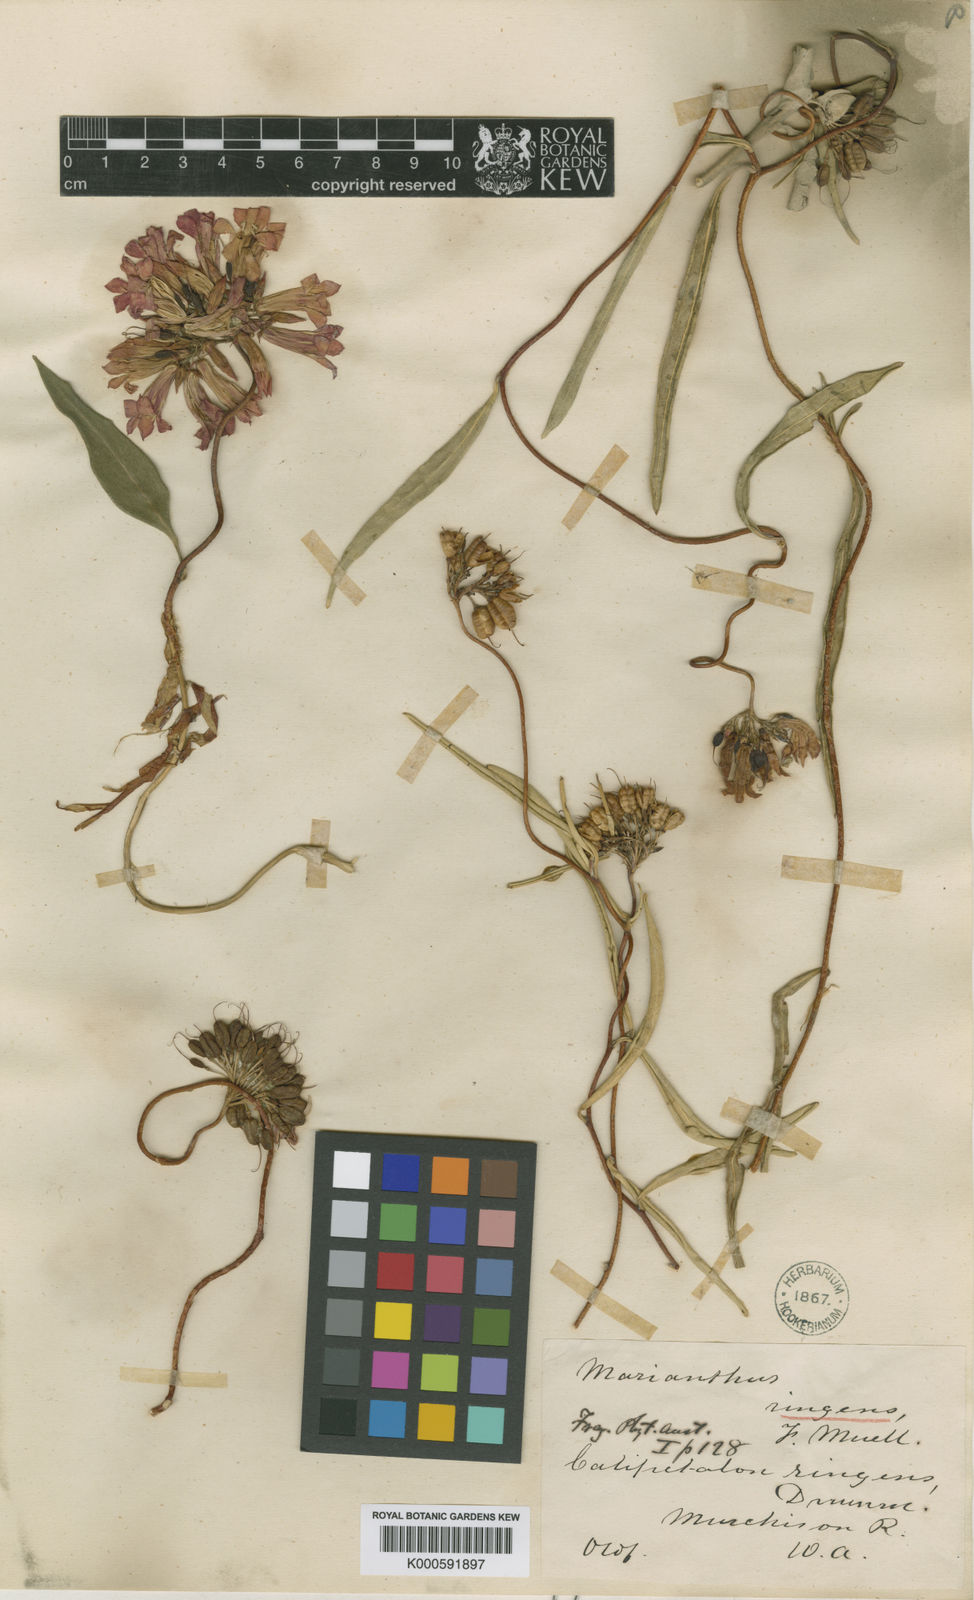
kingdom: Plantae
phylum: Tracheophyta
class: Magnoliopsida
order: Apiales
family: Pittosporaceae
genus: Marianthus
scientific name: Marianthus ringens
